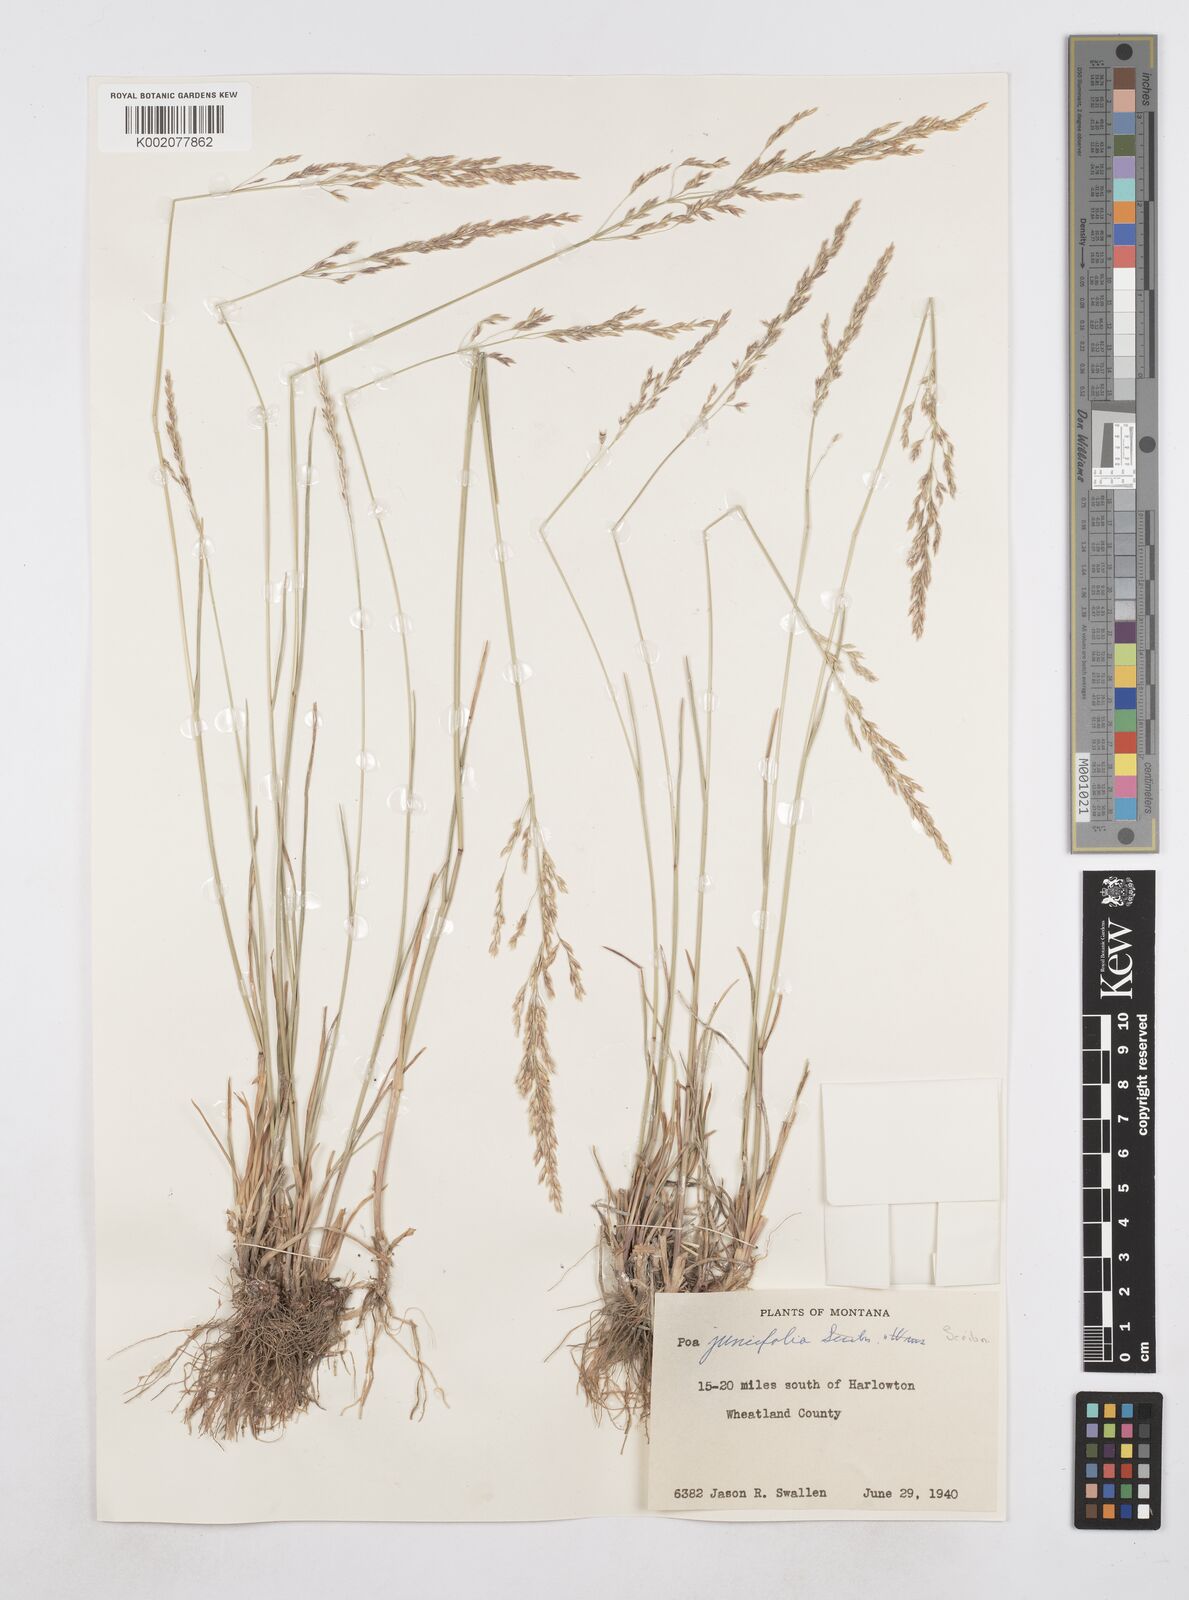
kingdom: Plantae
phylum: Tracheophyta
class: Liliopsida
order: Poales
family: Poaceae
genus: Poa
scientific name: Poa secunda
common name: Sandberg bluegrass
